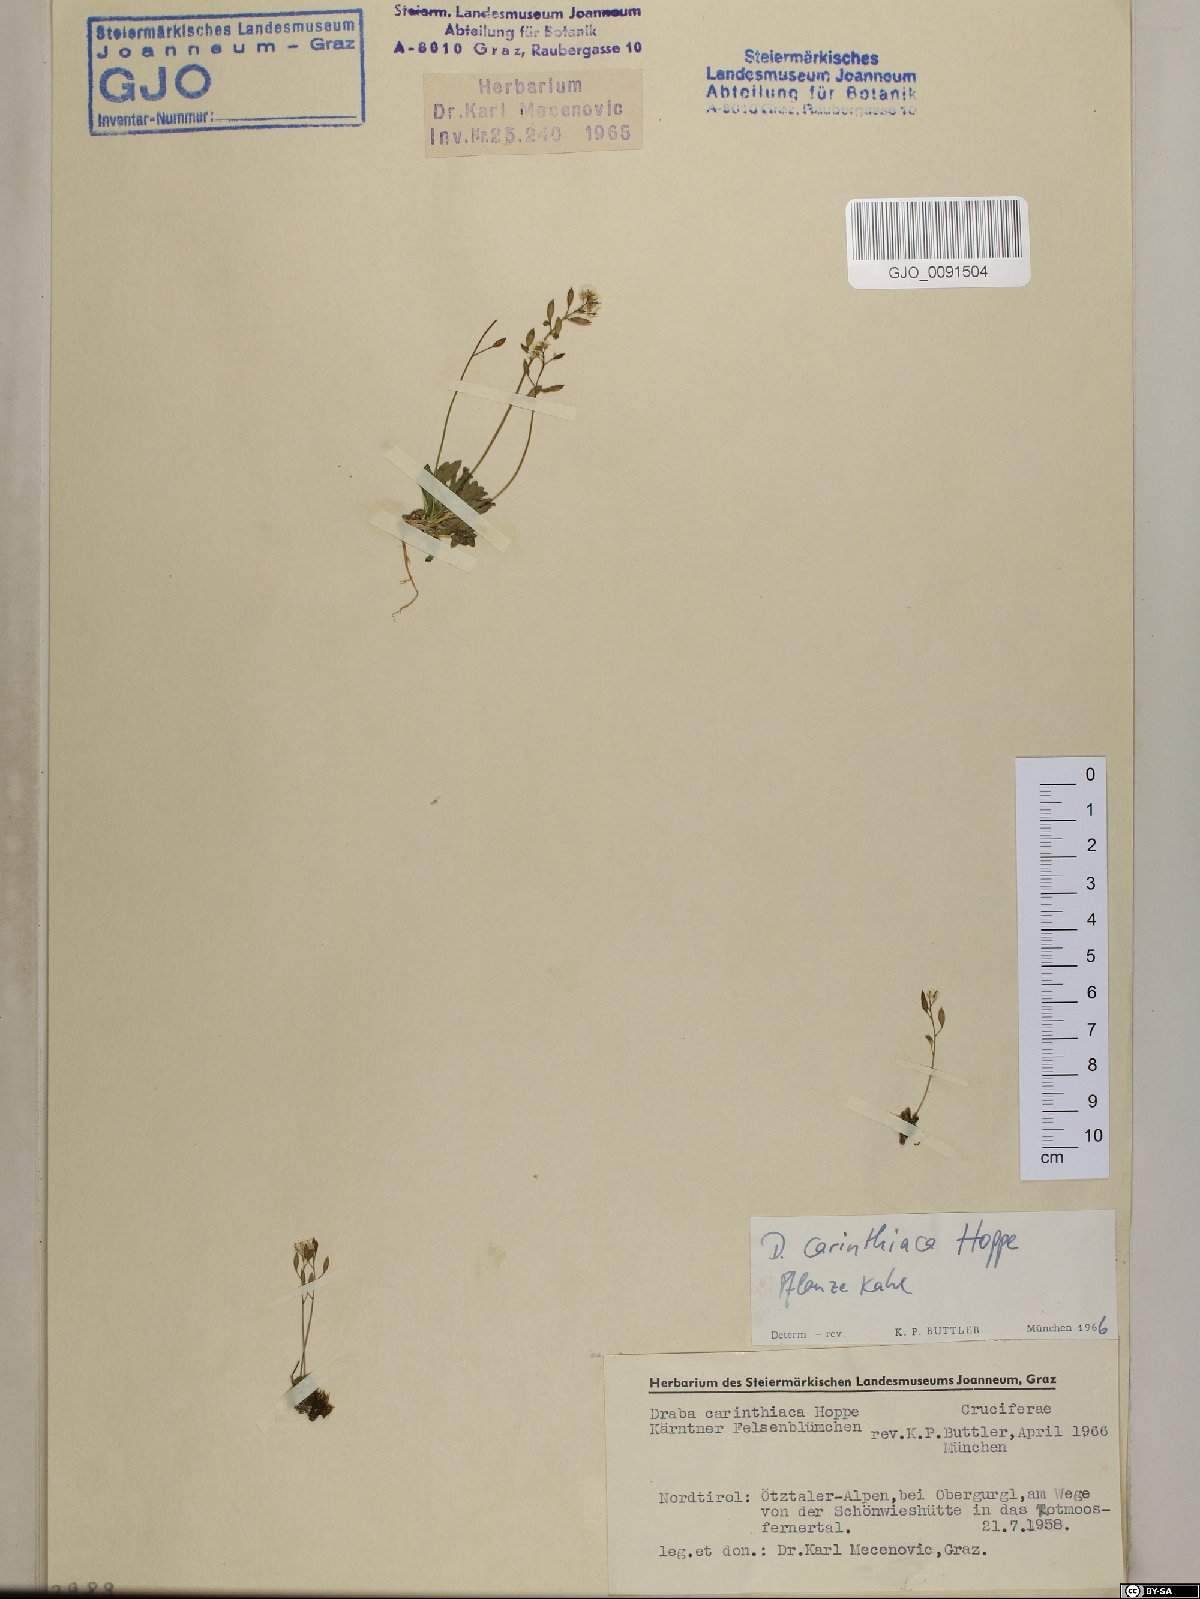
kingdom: Plantae
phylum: Tracheophyta
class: Magnoliopsida
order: Brassicales
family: Brassicaceae
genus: Draba
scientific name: Draba siliquosa
